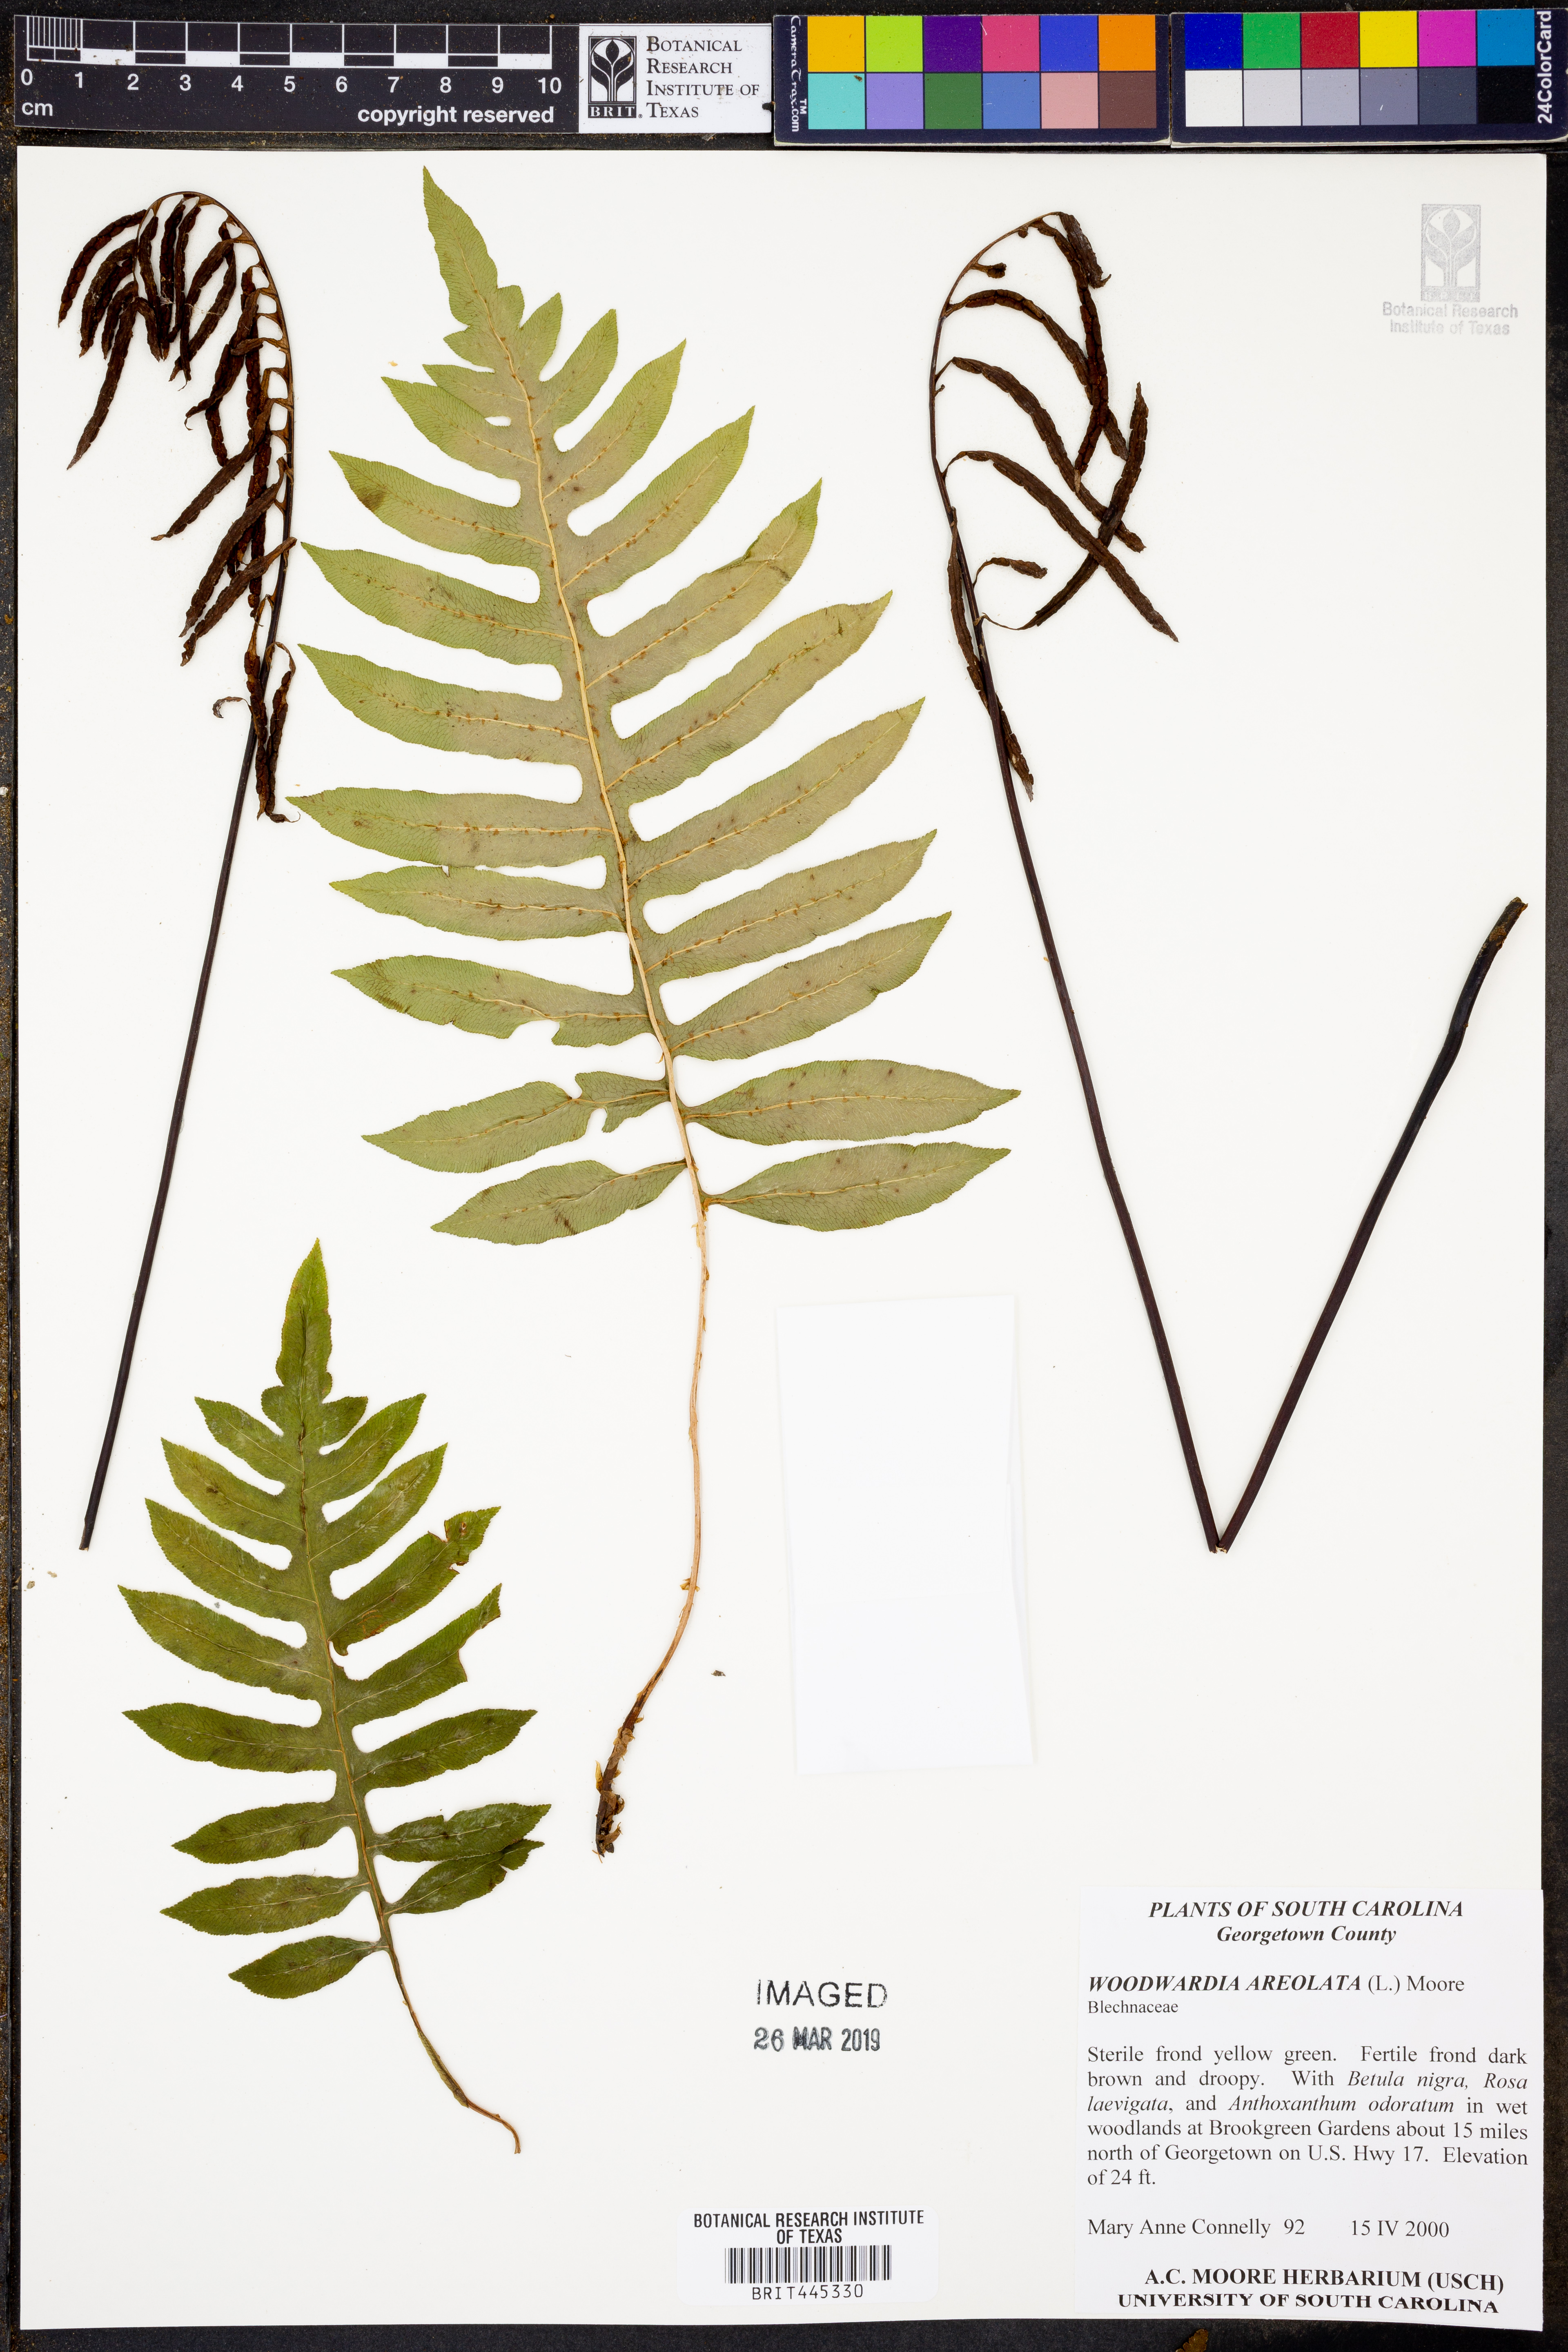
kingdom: Plantae
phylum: Tracheophyta
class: Polypodiopsida
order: Polypodiales
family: Blechnaceae
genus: Lorinseria
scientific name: Lorinseria areolata
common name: Dwarf chain fern
